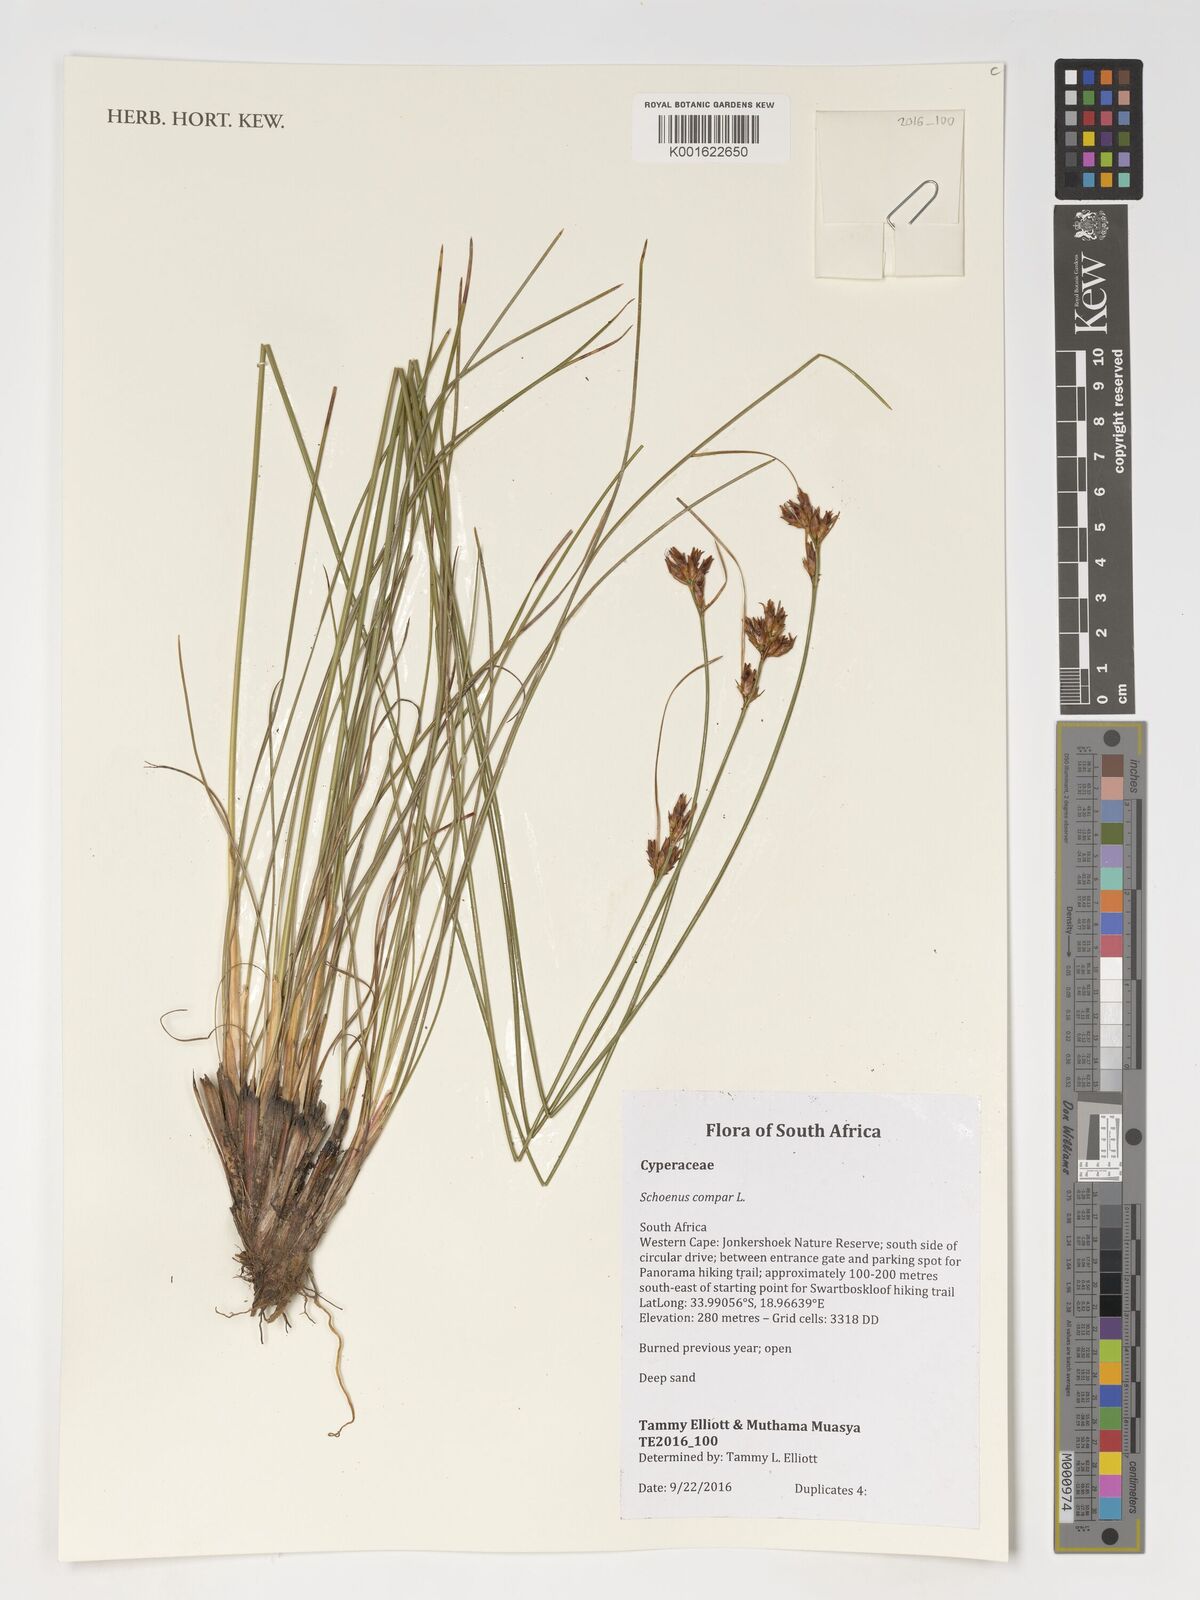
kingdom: Plantae
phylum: Tracheophyta
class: Liliopsida
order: Poales
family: Cyperaceae
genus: Schoenus
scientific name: Schoenus compar
